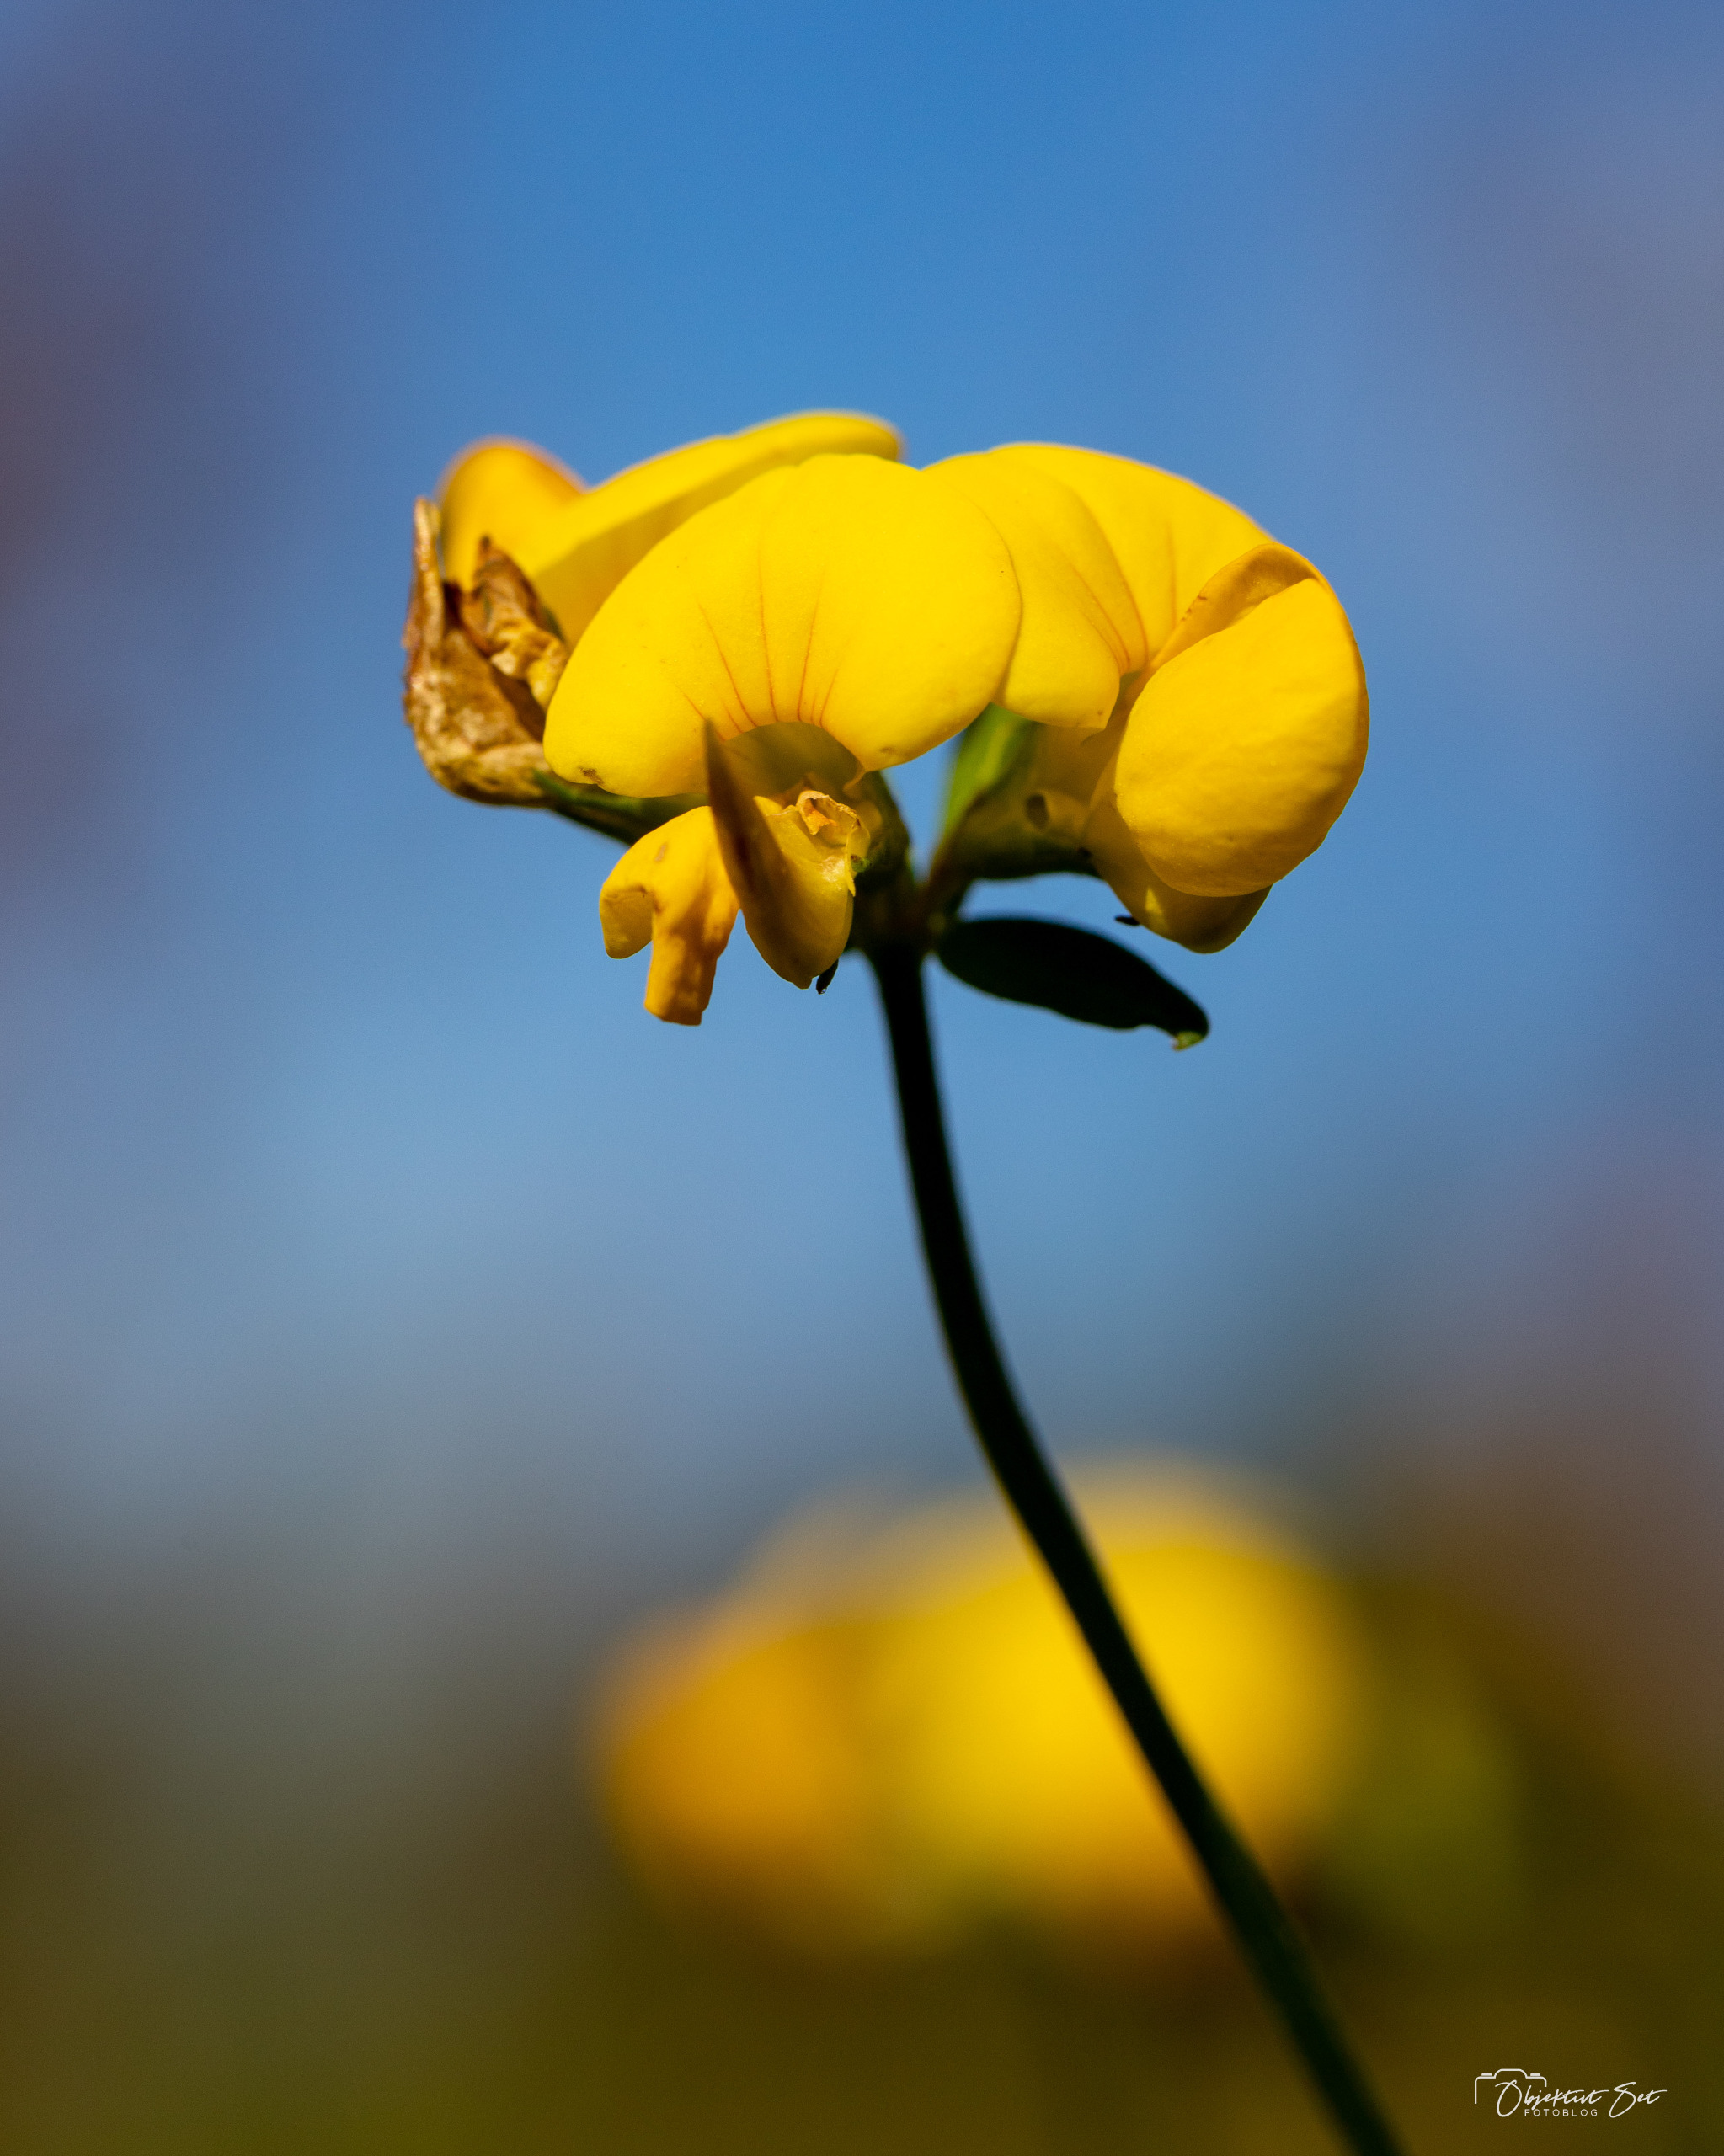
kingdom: Plantae
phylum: Tracheophyta
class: Magnoliopsida
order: Fabales
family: Fabaceae
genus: Lotus
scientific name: Lotus corniculatus
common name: Almindelig kællingetand
